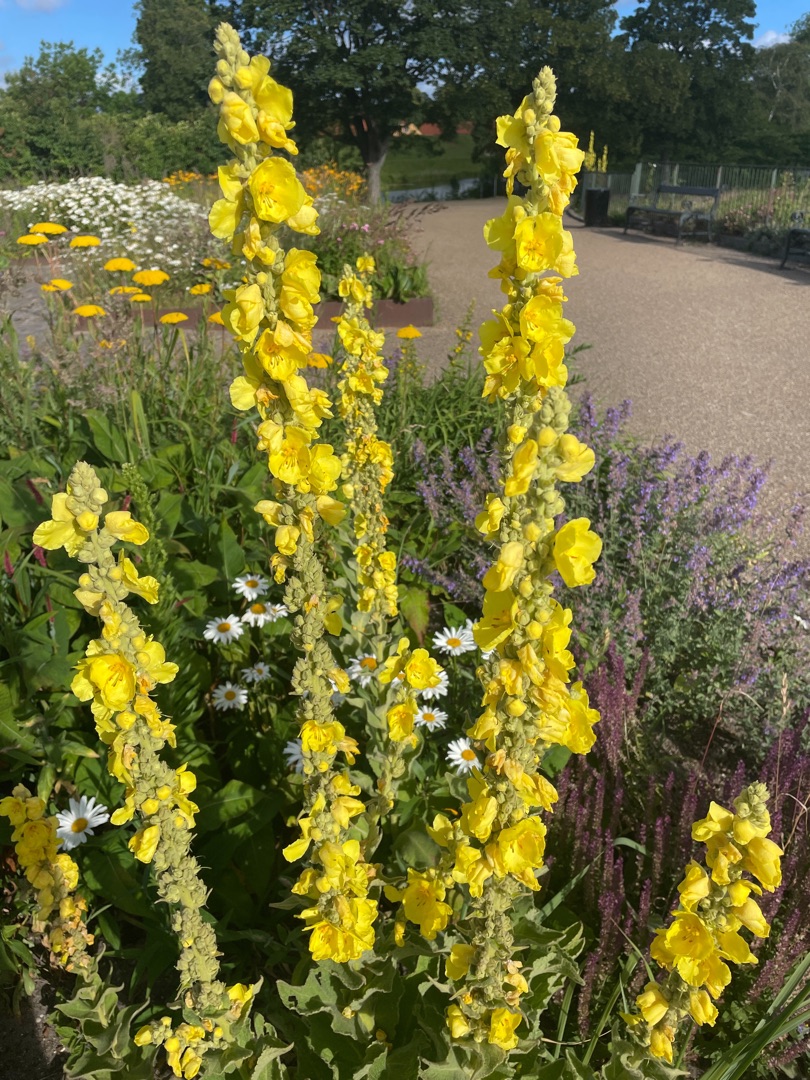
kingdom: Plantae
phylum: Tracheophyta
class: Magnoliopsida
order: Lamiales
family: Scrophulariaceae
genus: Verbascum
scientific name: Verbascum densiflorum
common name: Uldbladet kongelys
